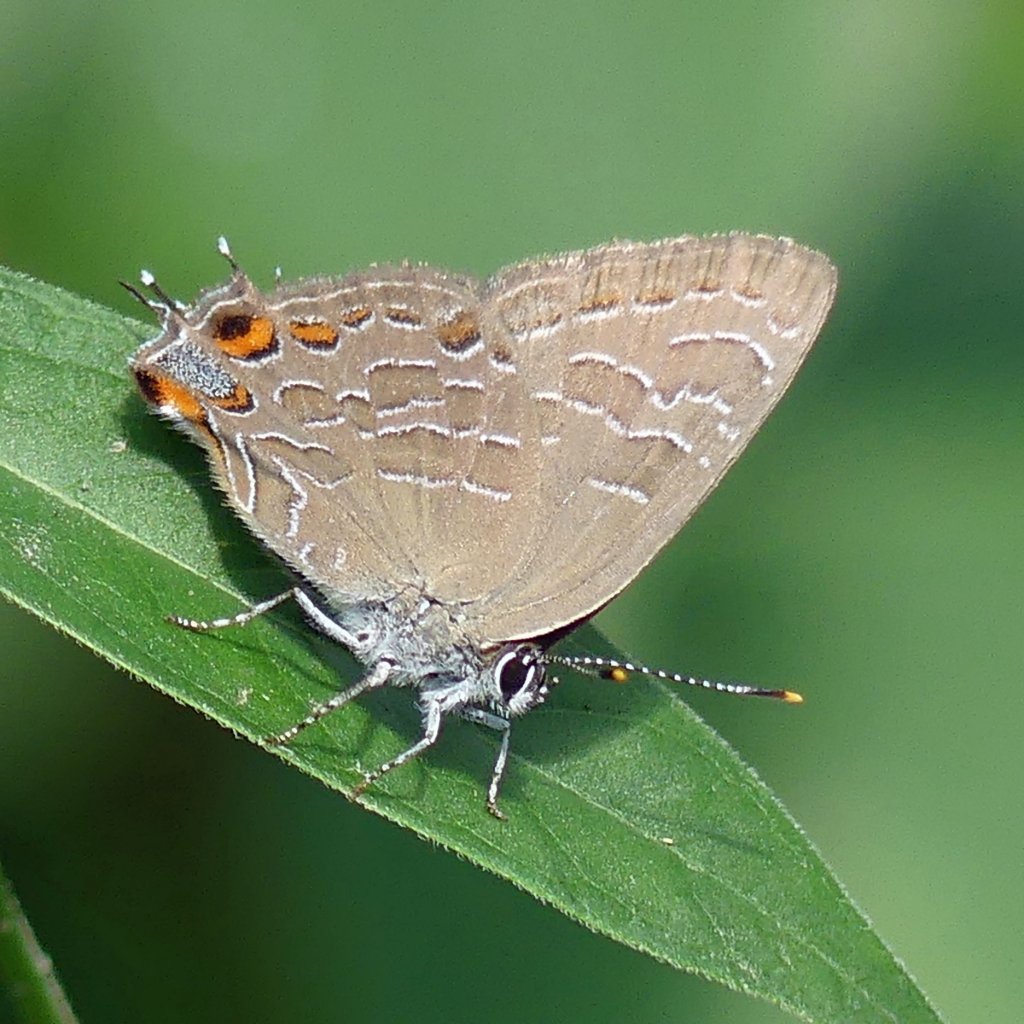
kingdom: Animalia
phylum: Arthropoda
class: Insecta
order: Lepidoptera
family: Lycaenidae
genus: Satyrium
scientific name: Satyrium liparops
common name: Striped Hairstreak
